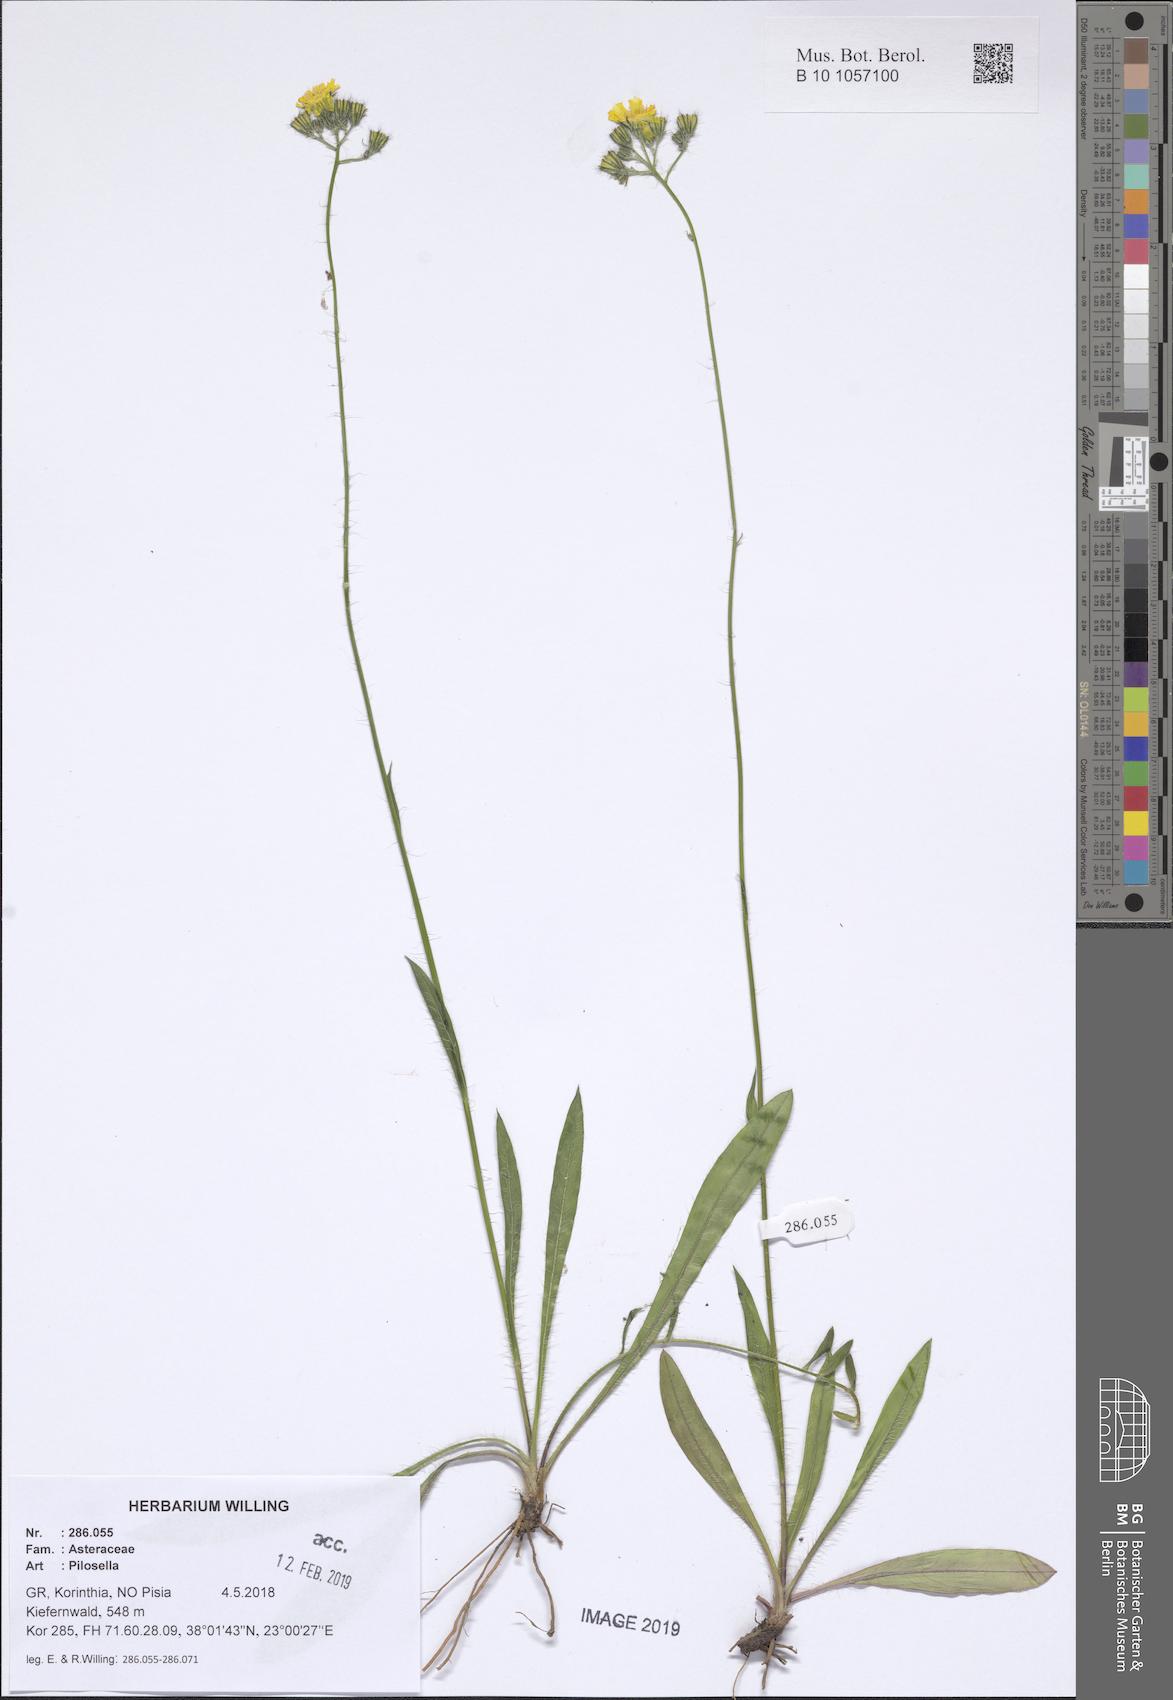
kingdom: Plantae
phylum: Tracheophyta
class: Magnoliopsida
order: Asterales
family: Asteraceae
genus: Pilosella
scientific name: Pilosella
